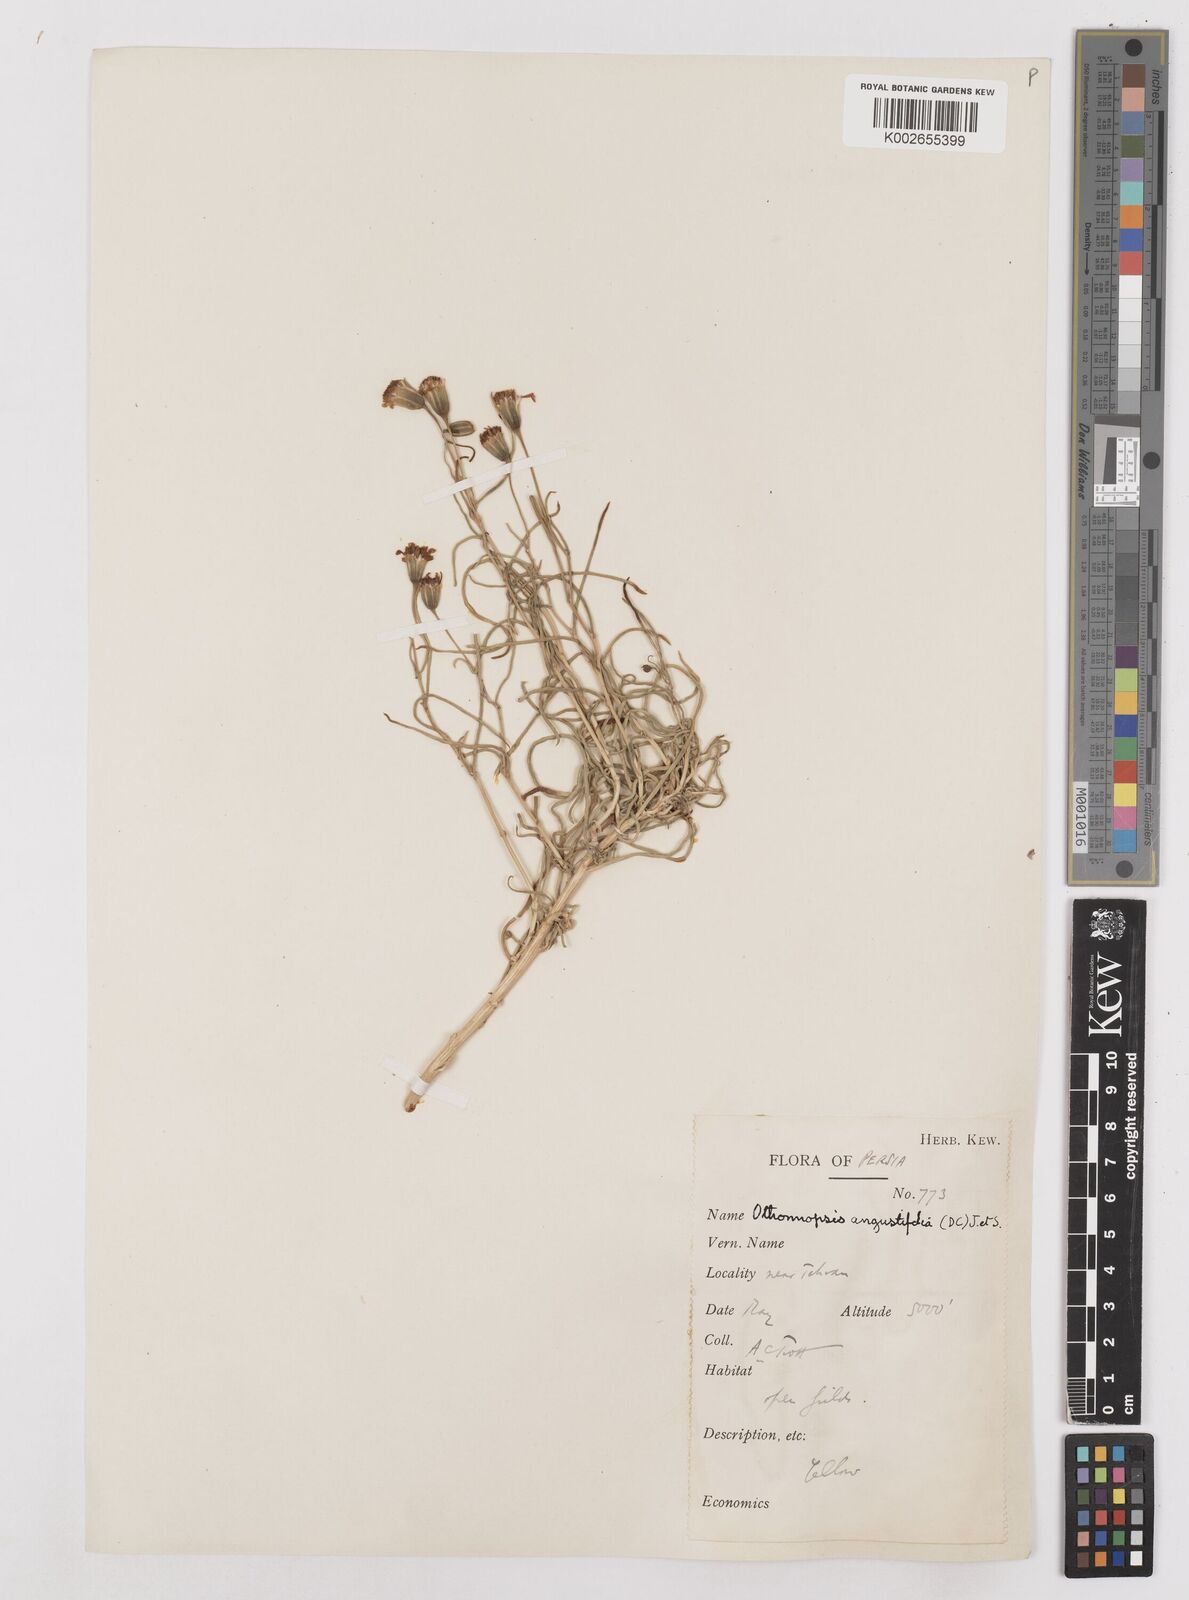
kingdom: Plantae
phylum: Tracheophyta
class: Magnoliopsida
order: Asterales
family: Asteraceae
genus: Hertia
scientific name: Hertia angustifolia
